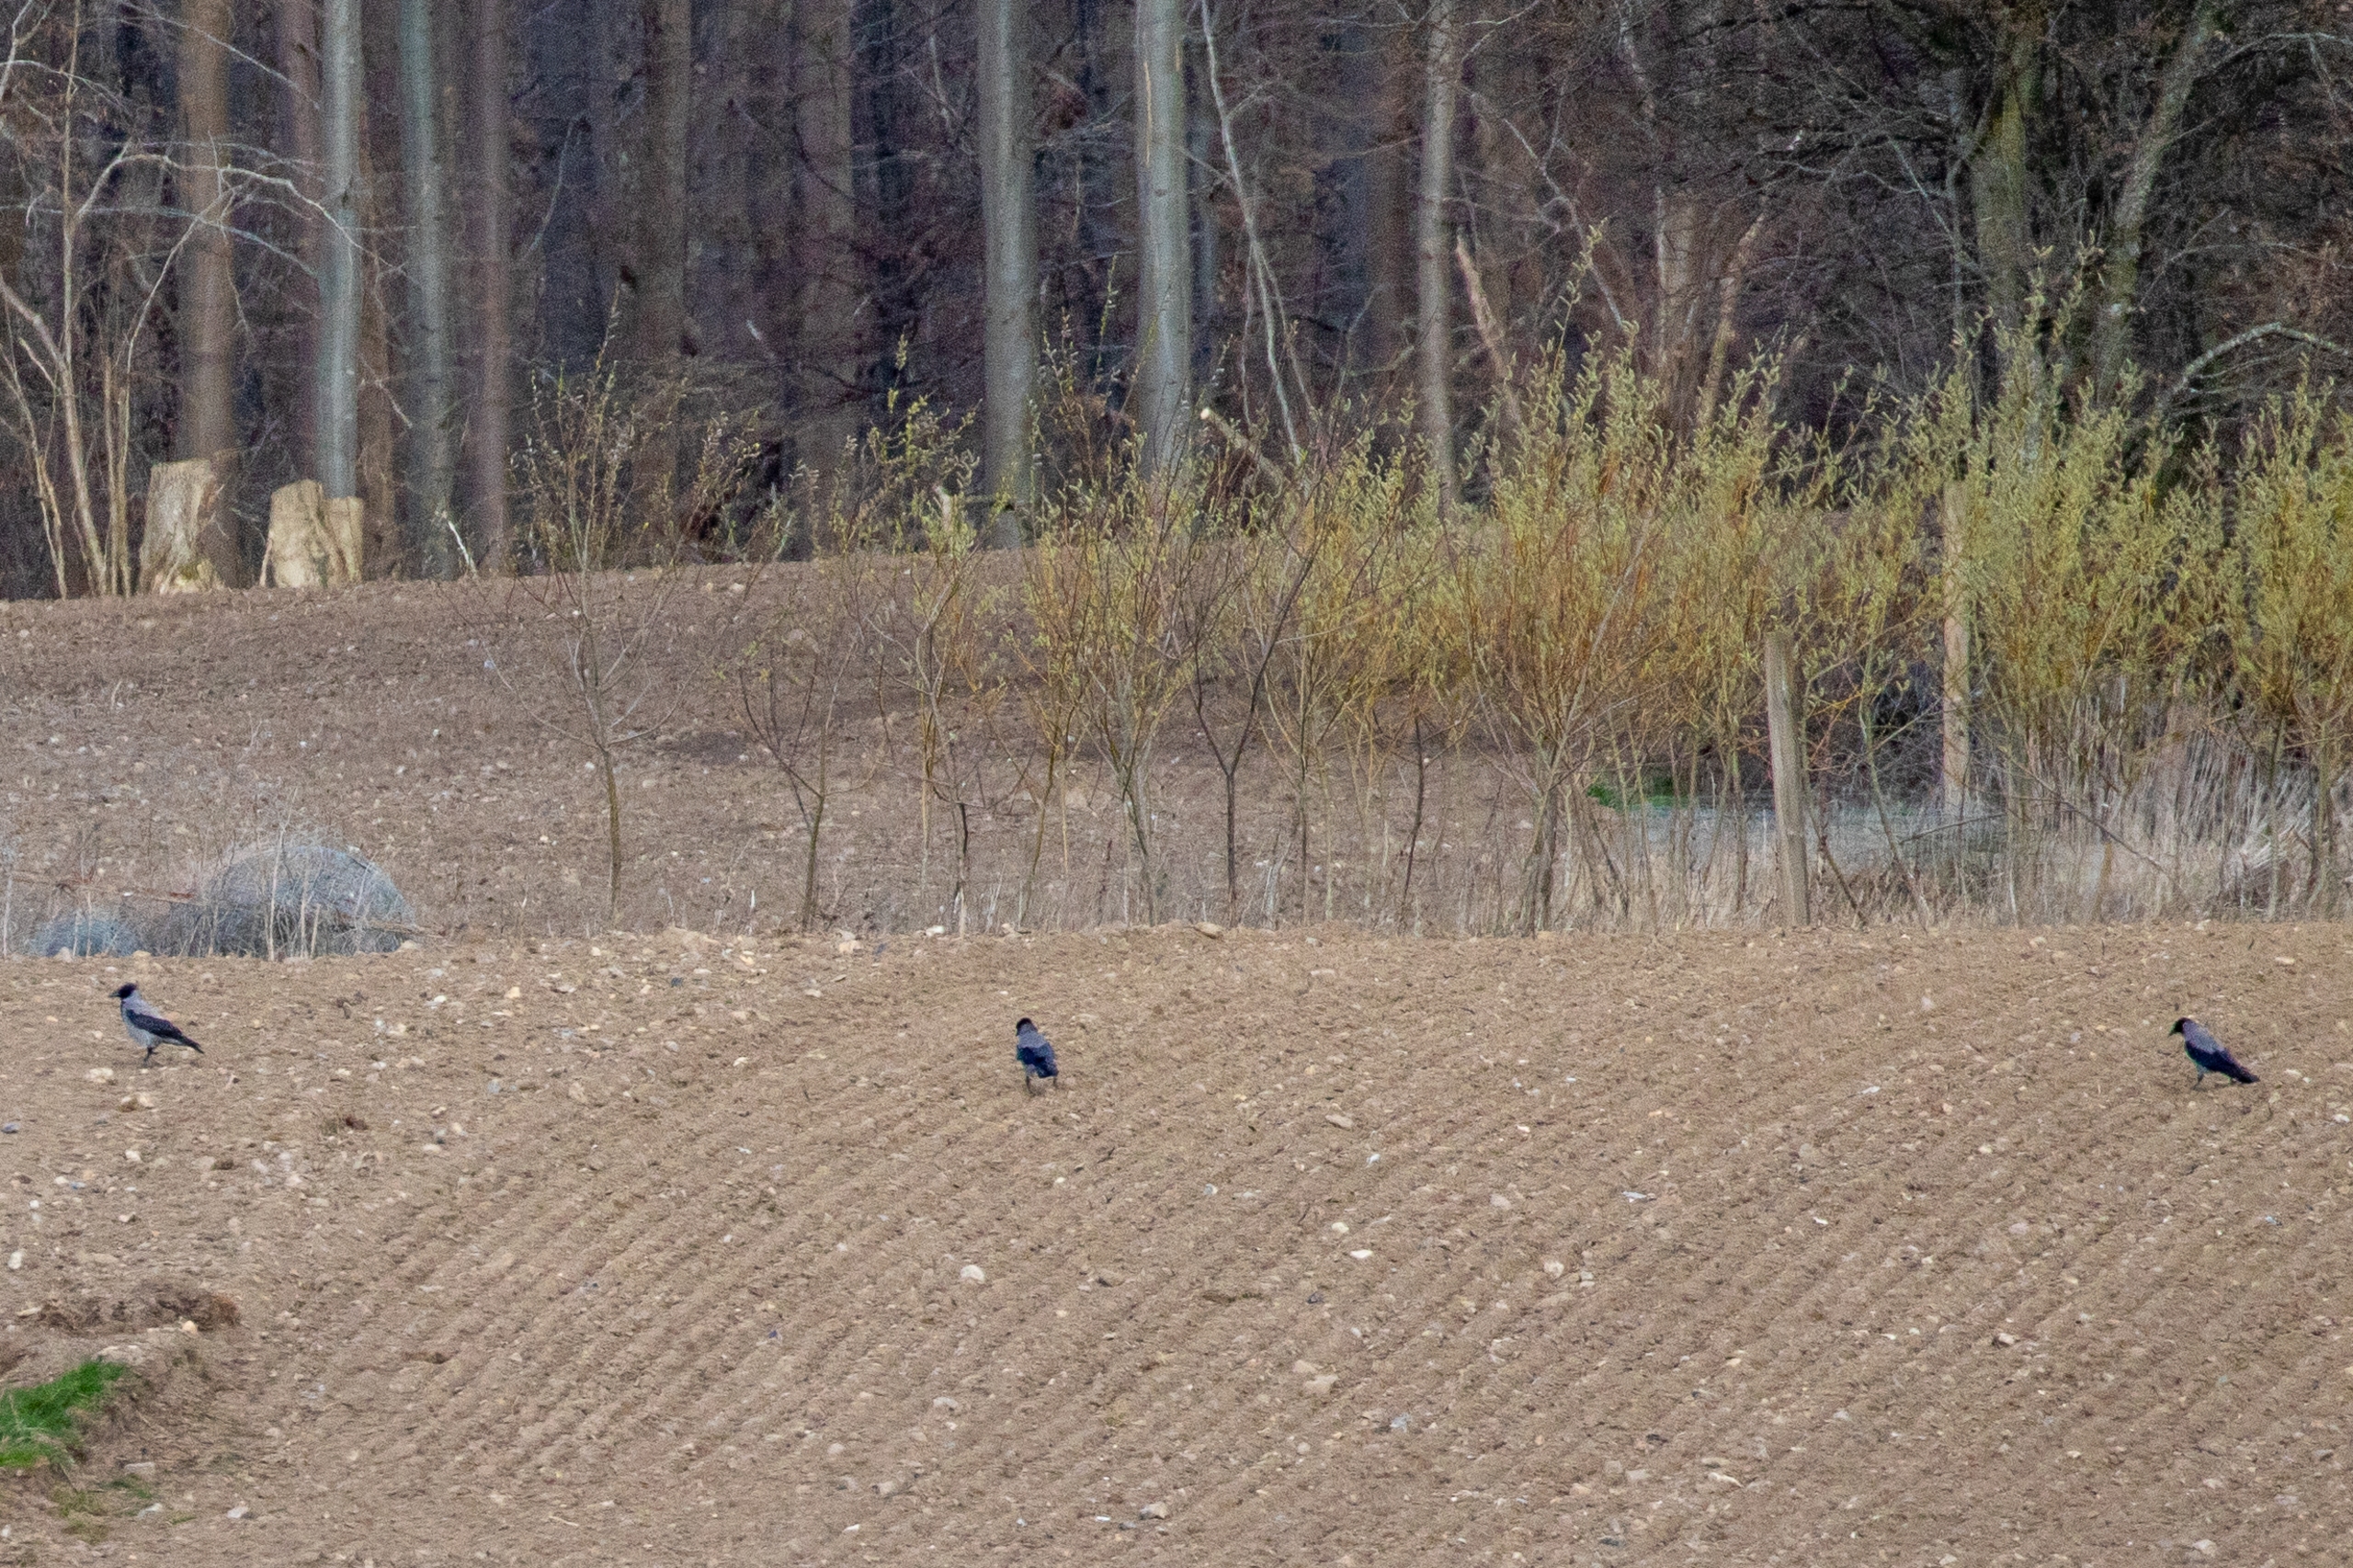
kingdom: Animalia
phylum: Chordata
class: Aves
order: Passeriformes
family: Corvidae
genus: Corvus
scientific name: Corvus cornix
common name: Gråkrage
